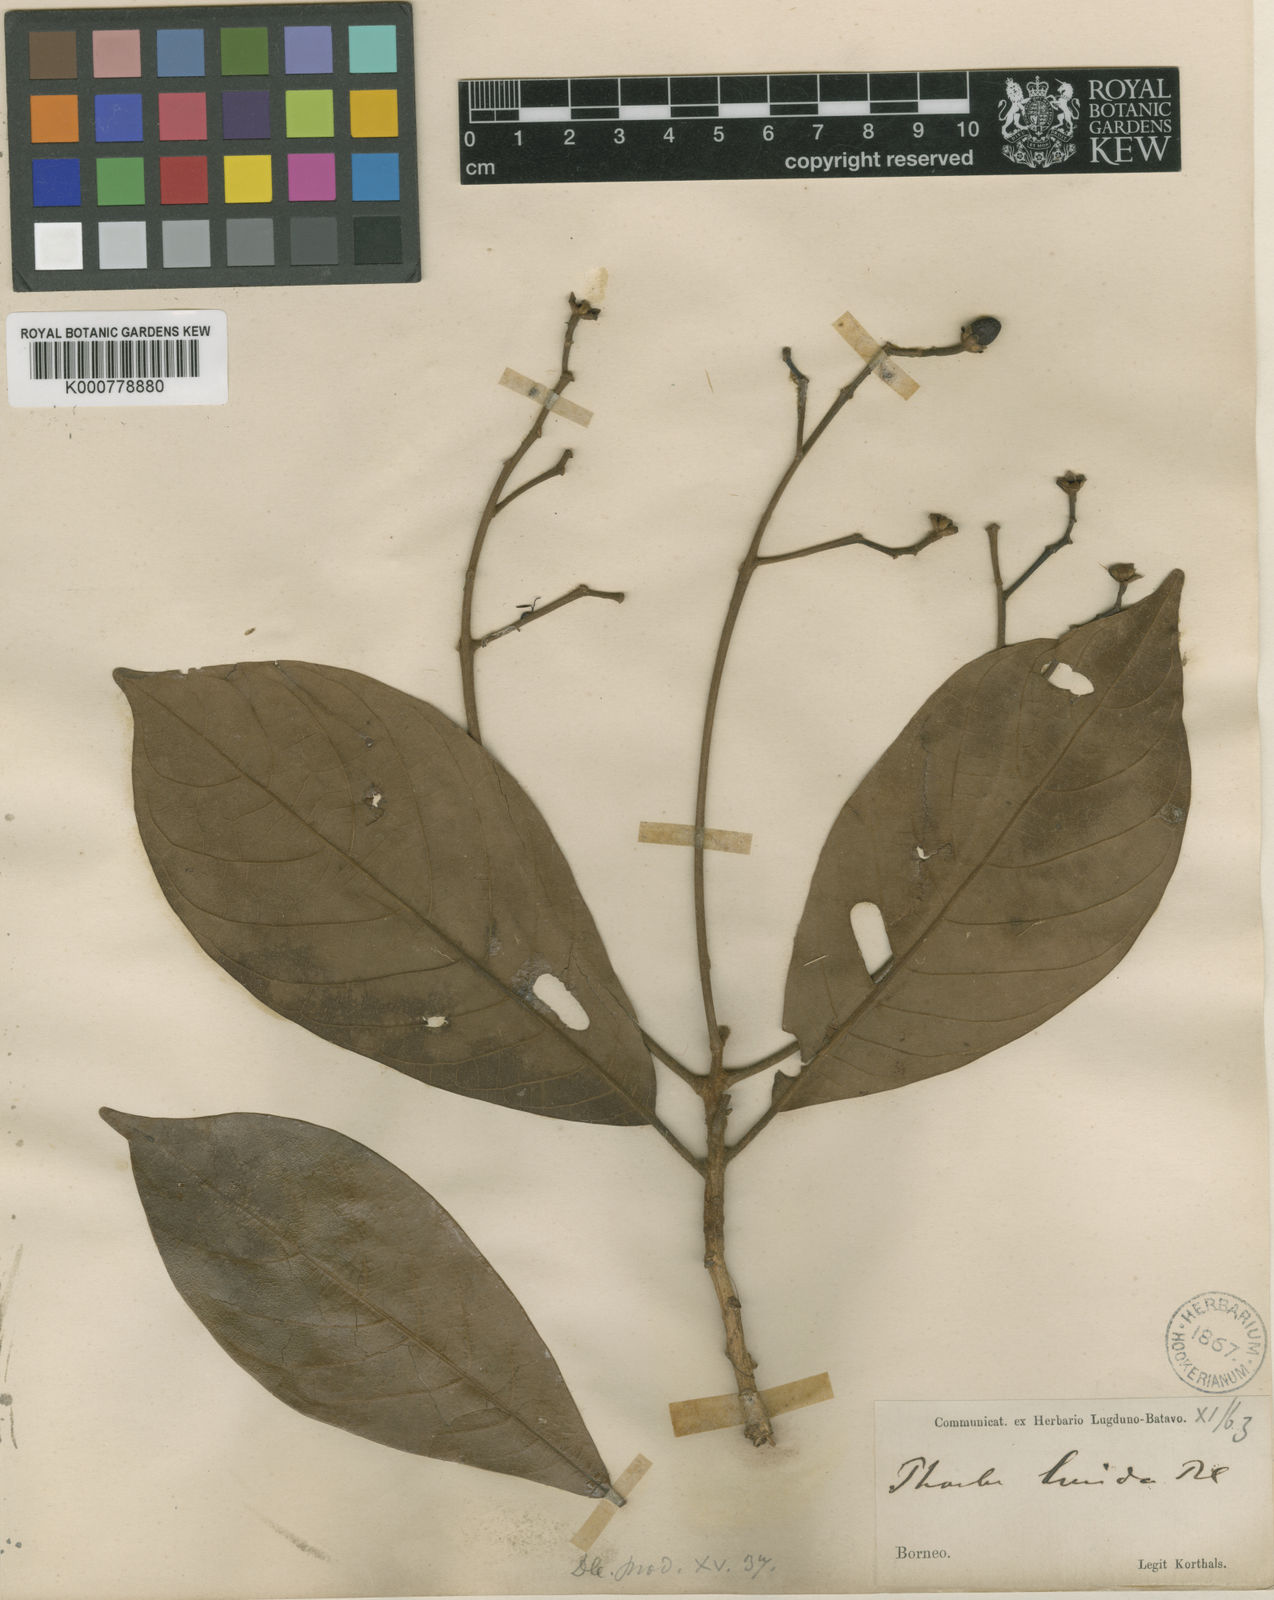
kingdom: Plantae
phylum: Tracheophyta
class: Magnoliopsida
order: Laurales
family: Lauraceae
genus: Phoebe
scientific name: Phoebe lucida
